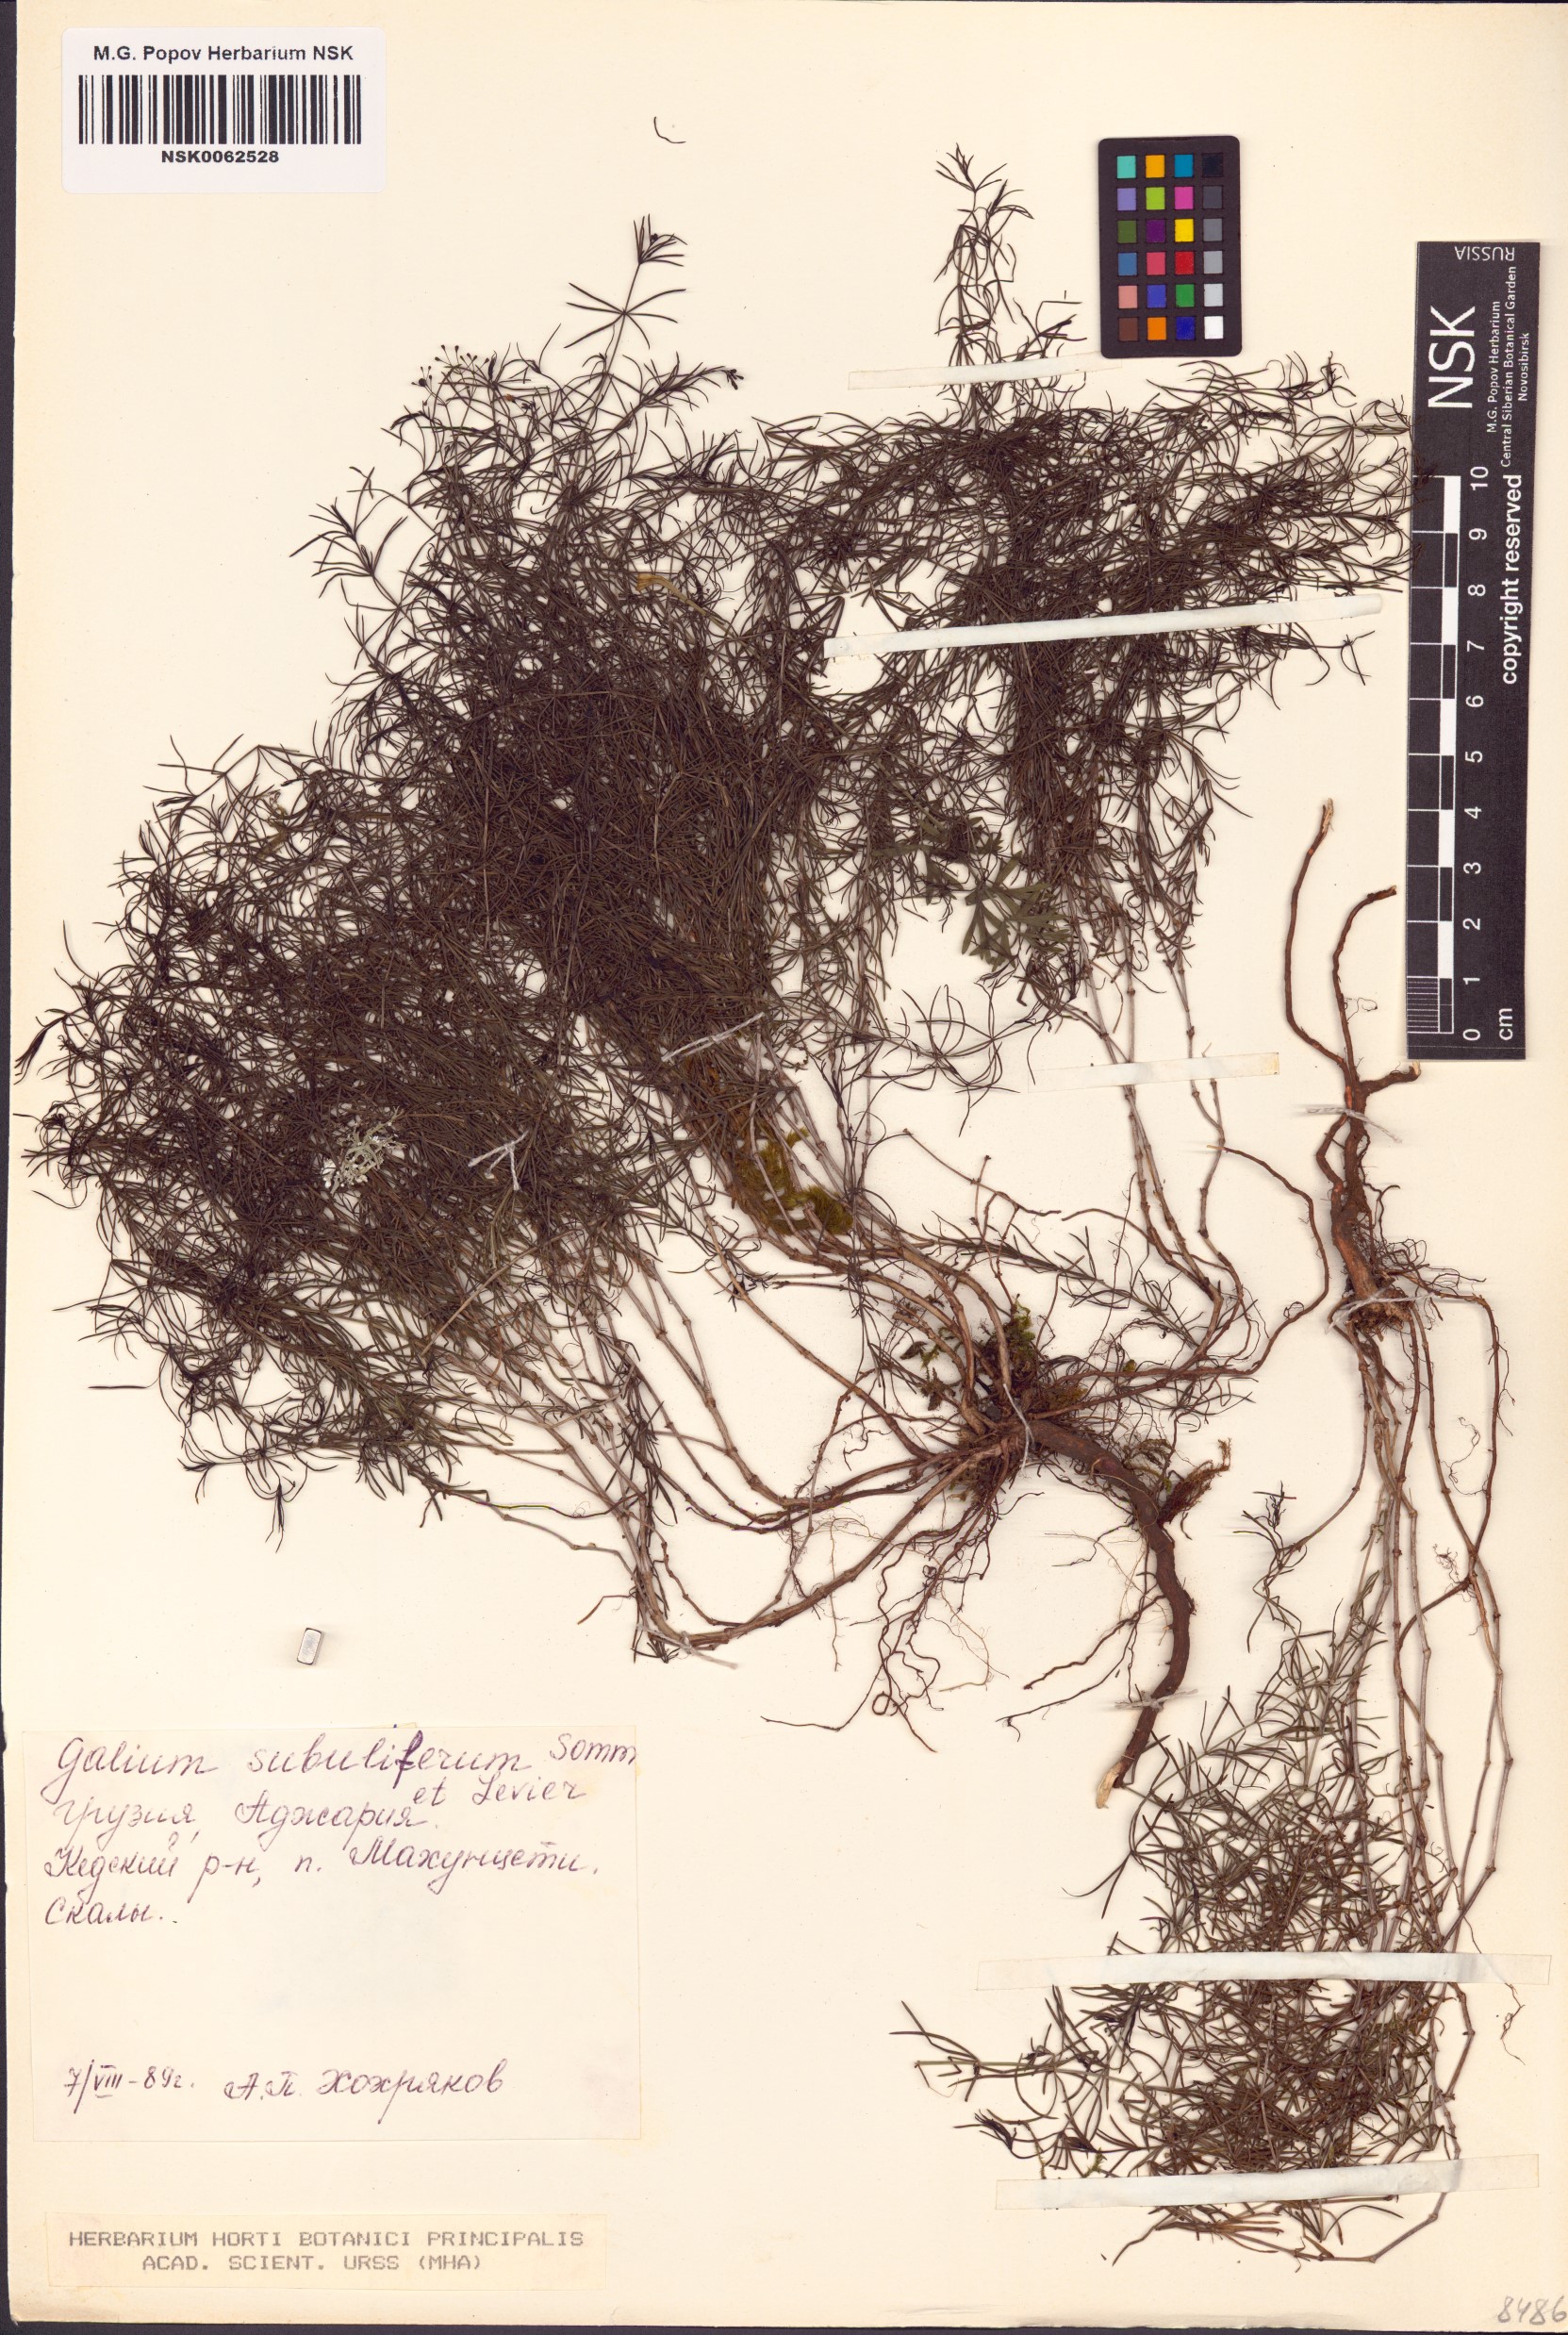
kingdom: Plantae
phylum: Tracheophyta
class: Magnoliopsida
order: Gentianales
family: Rubiaceae
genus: Galium
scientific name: Galium subuliferum
